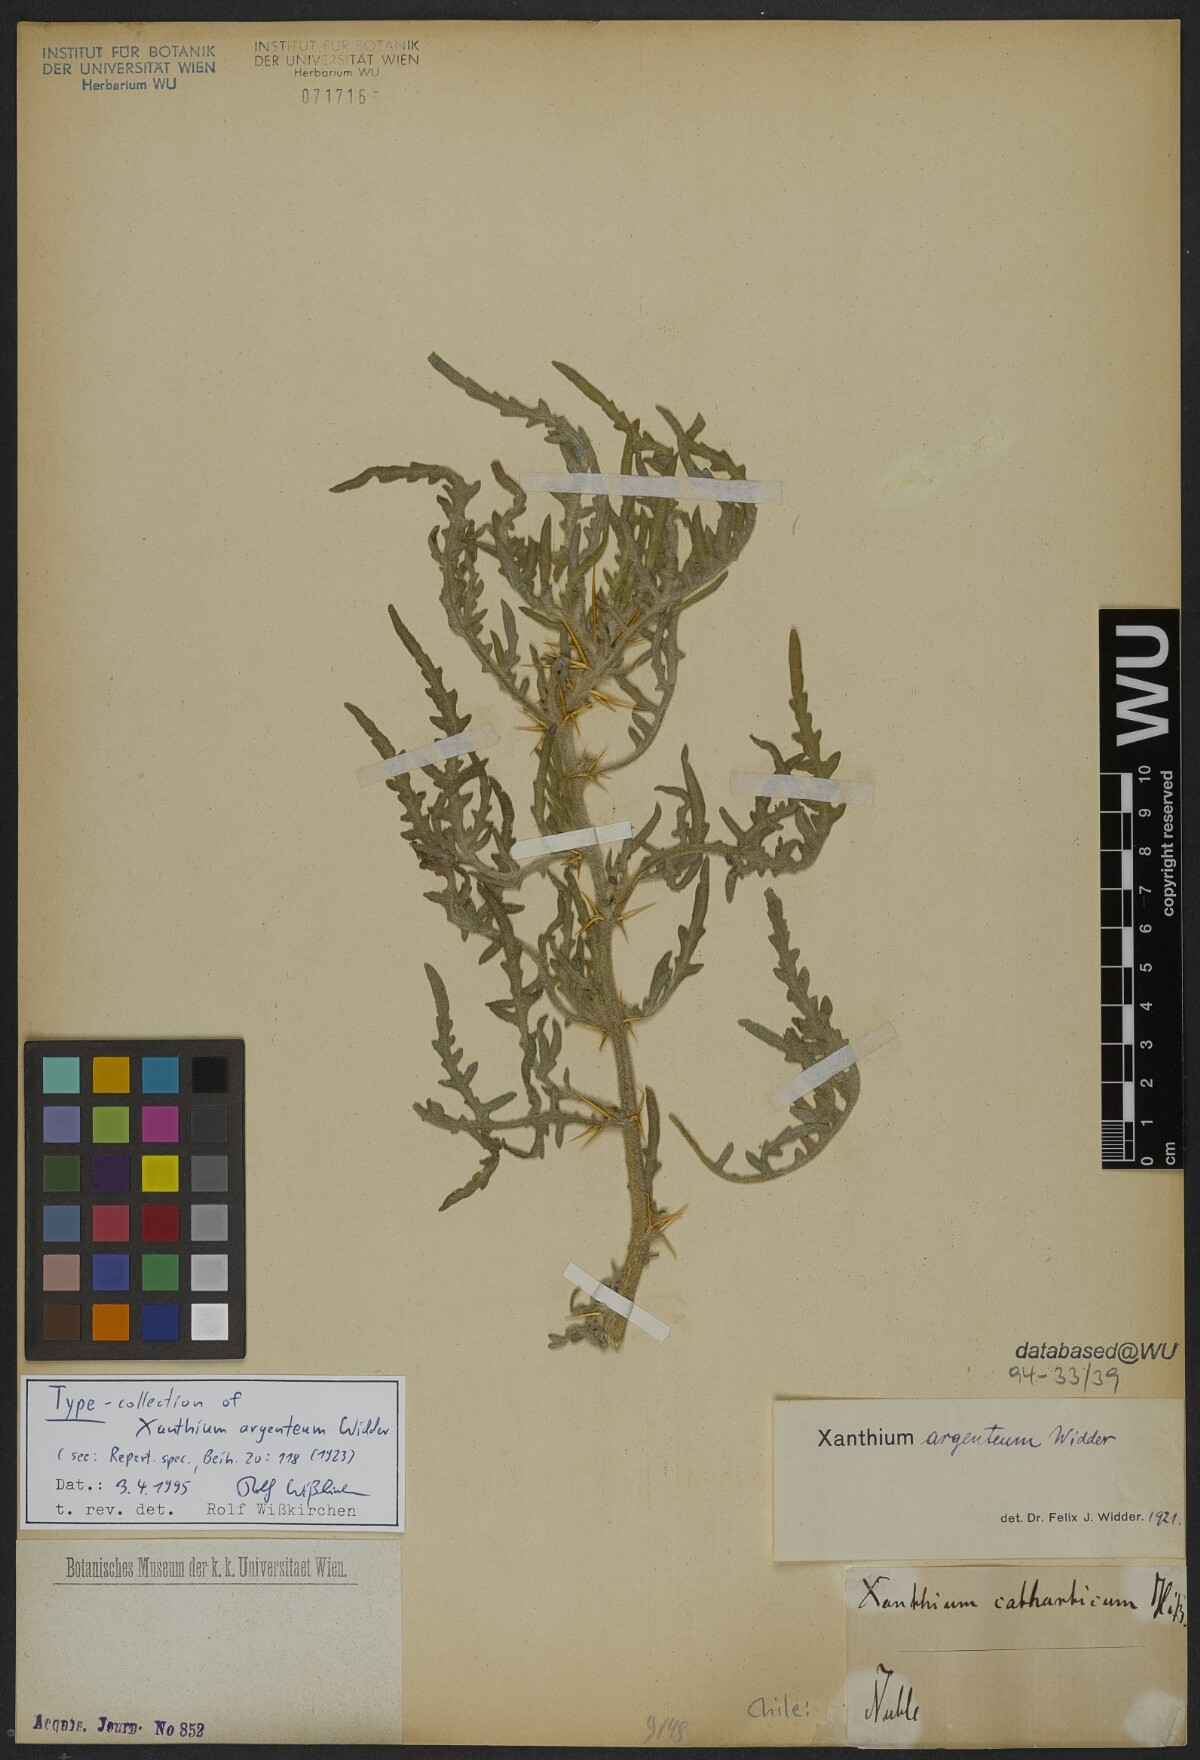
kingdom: Plantae
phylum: Tracheophyta
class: Magnoliopsida
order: Asterales
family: Asteraceae
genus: Xanthium
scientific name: Xanthium spinosum
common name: Spiny cocklebur
